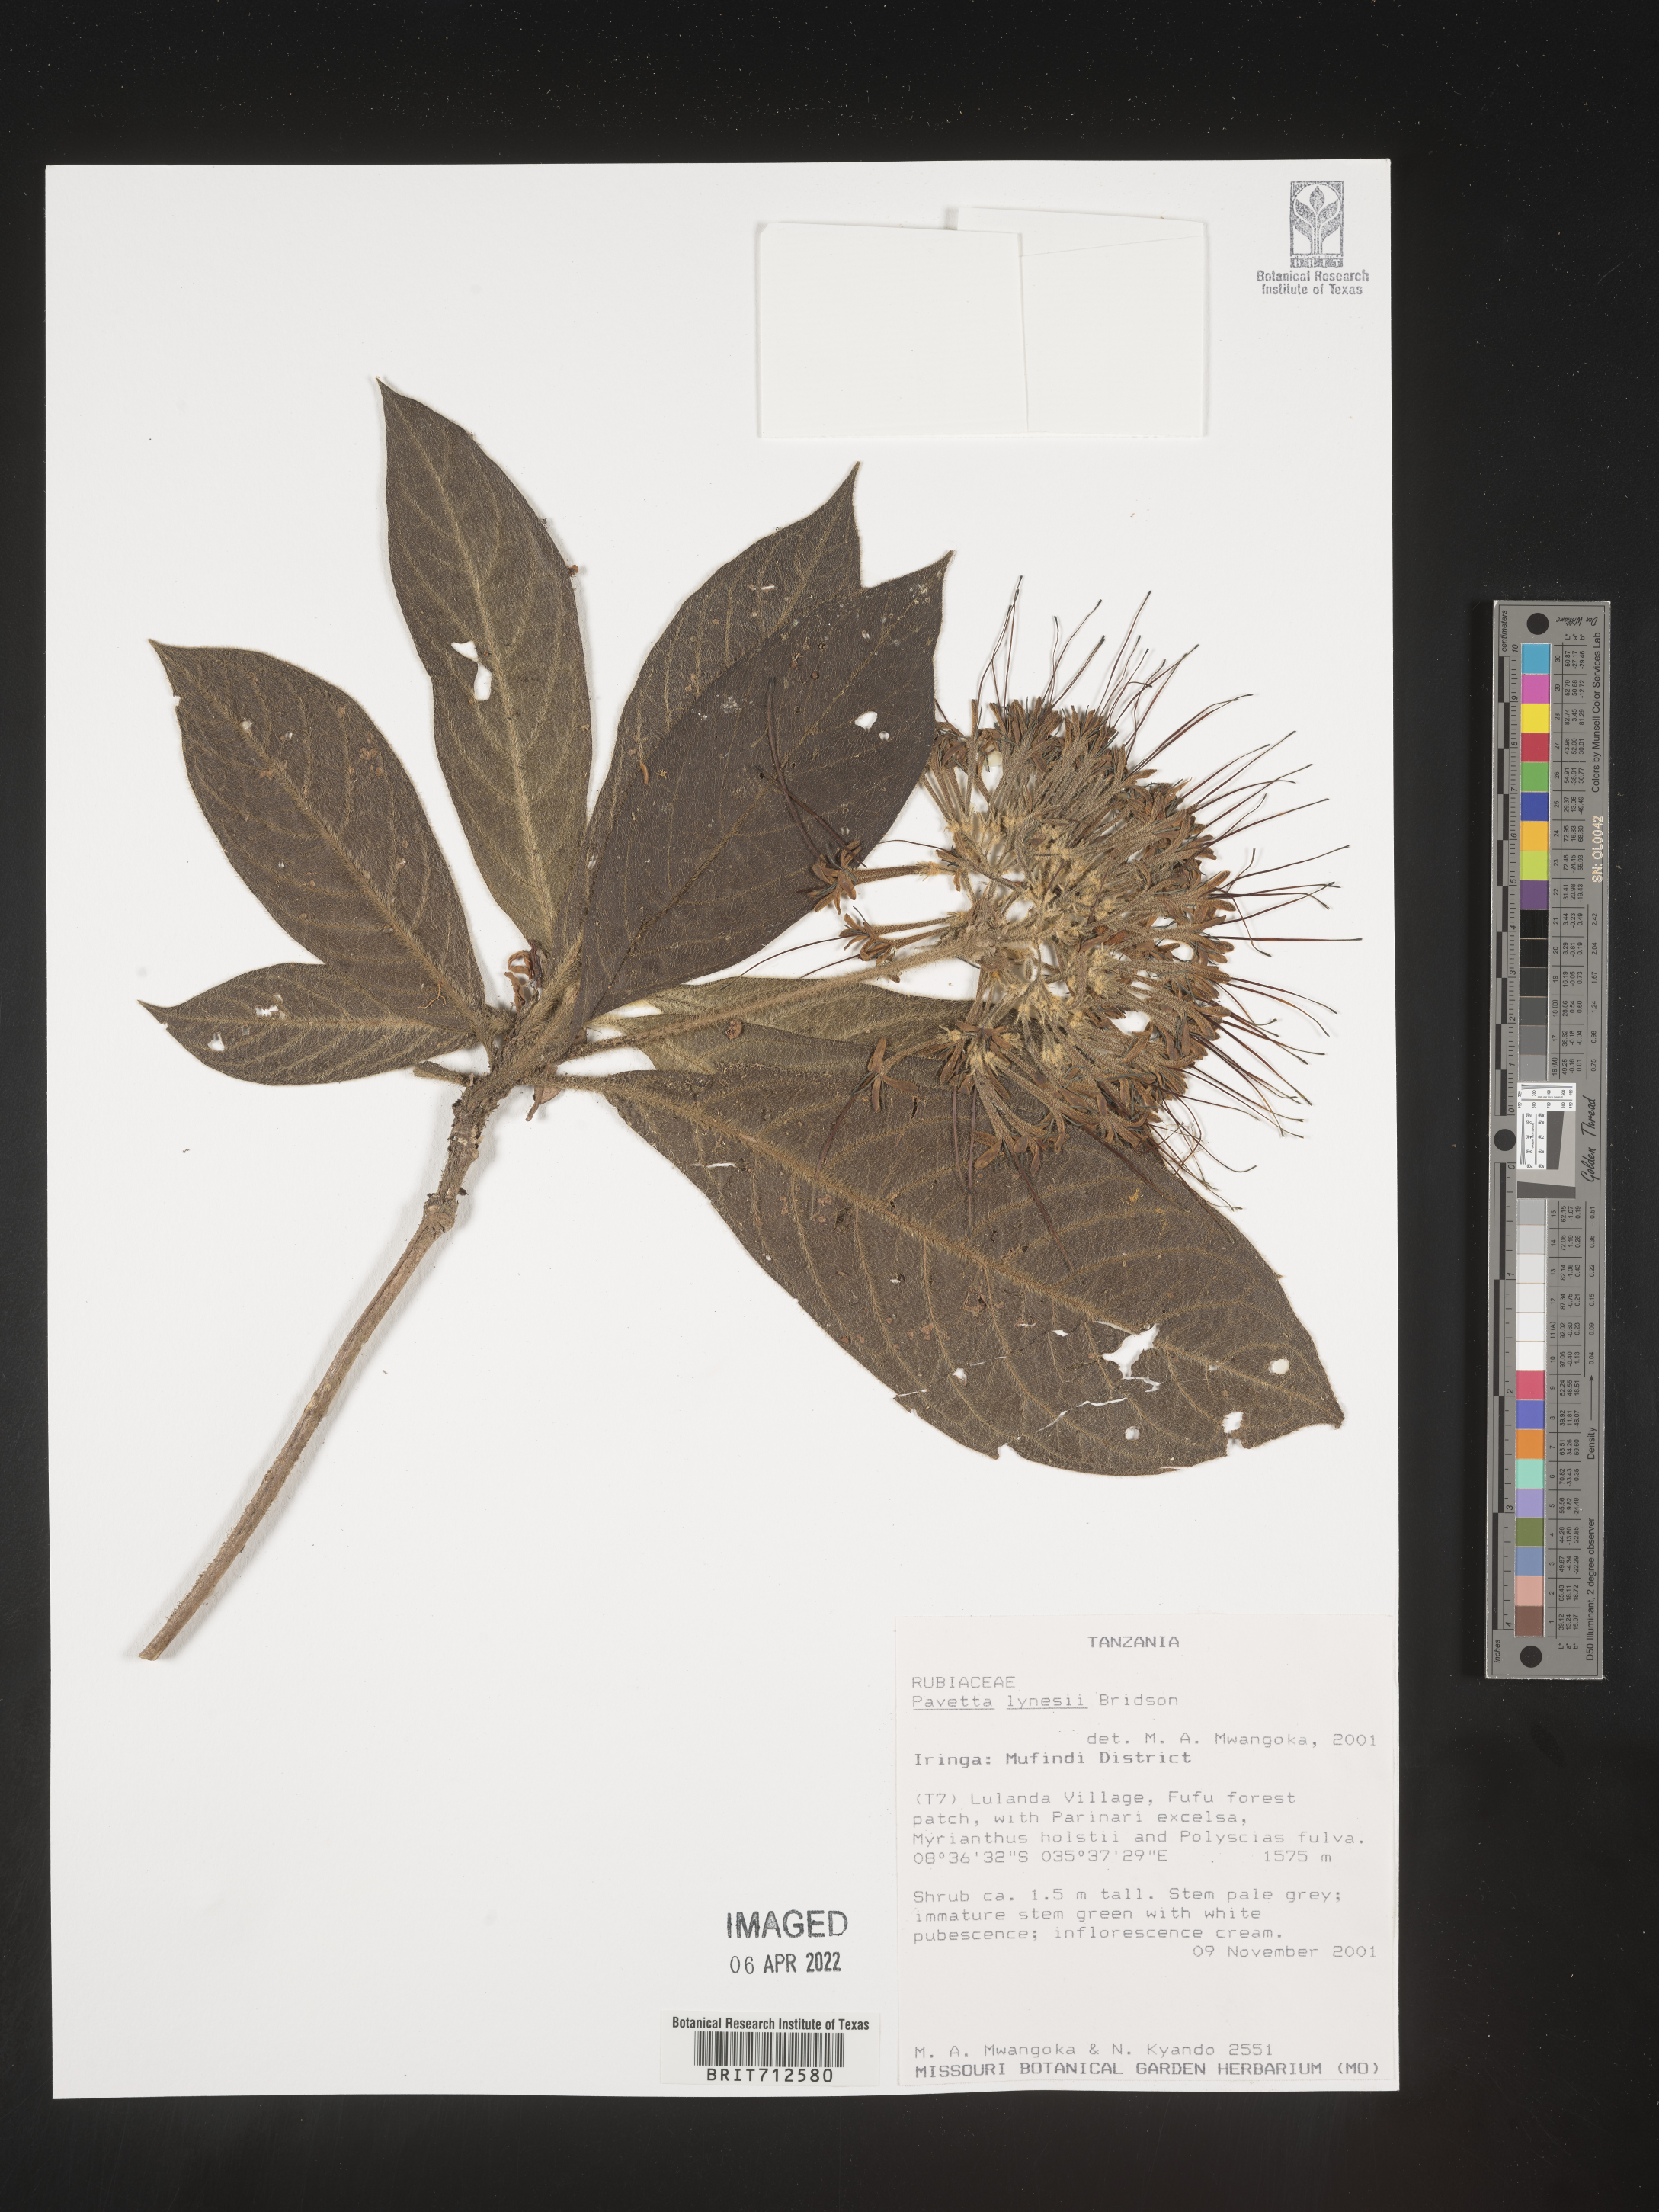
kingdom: Plantae
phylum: Tracheophyta
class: Magnoliopsida
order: Gentianales
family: Rubiaceae
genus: Pavetta
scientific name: Pavetta
